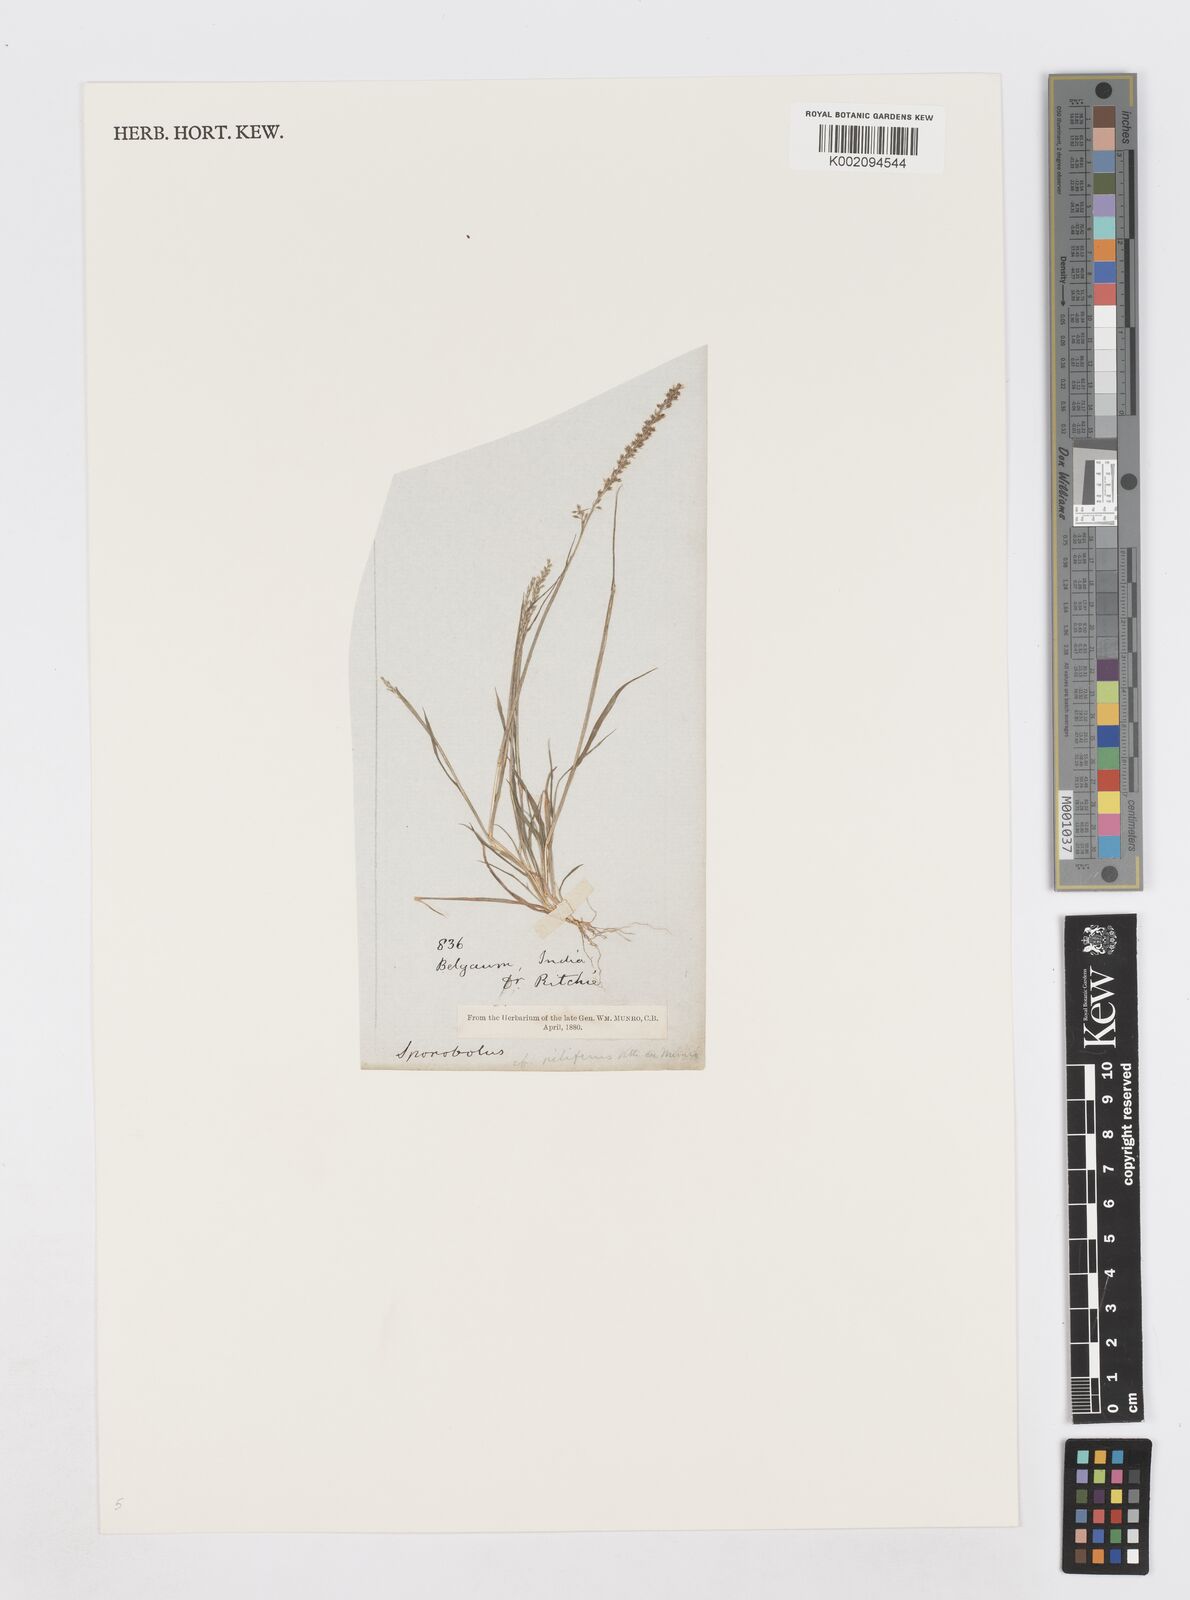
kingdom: Plantae
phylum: Tracheophyta
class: Liliopsida
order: Poales
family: Poaceae
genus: Sporobolus
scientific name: Sporobolus pilifer
